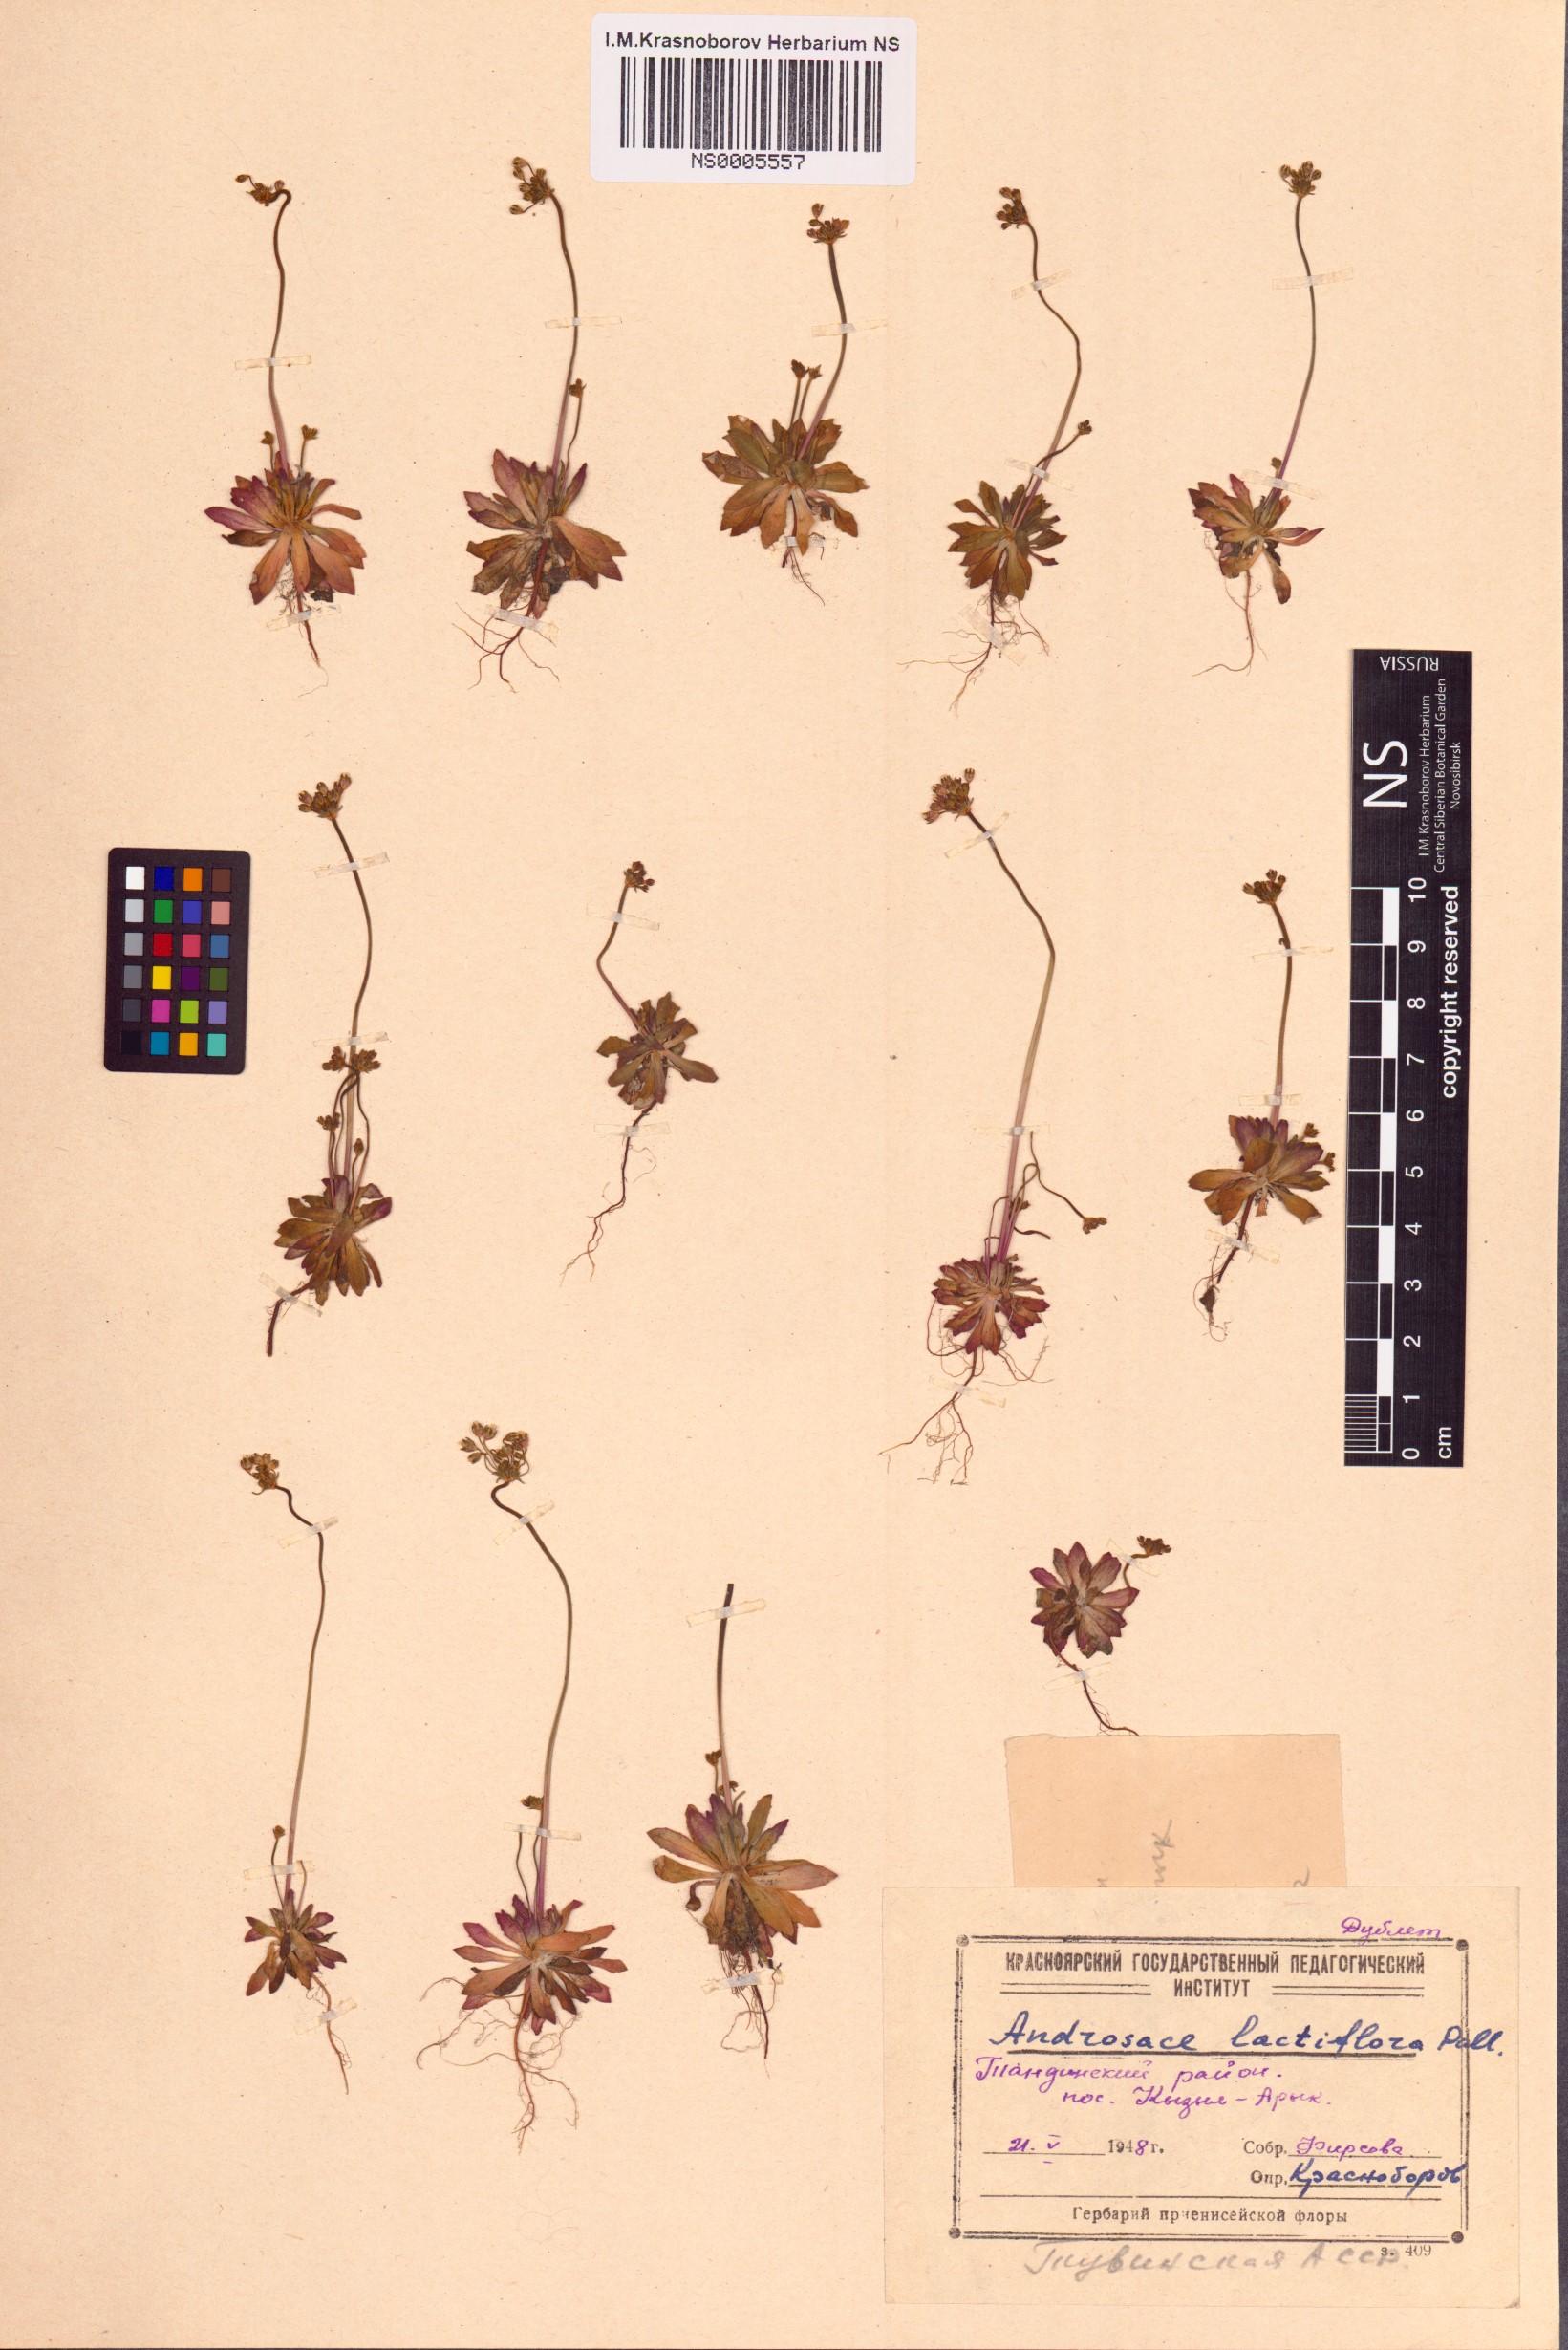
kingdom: Plantae
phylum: Tracheophyta
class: Magnoliopsida
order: Ericales
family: Primulaceae
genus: Androsace
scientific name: Androsace lactiflora
